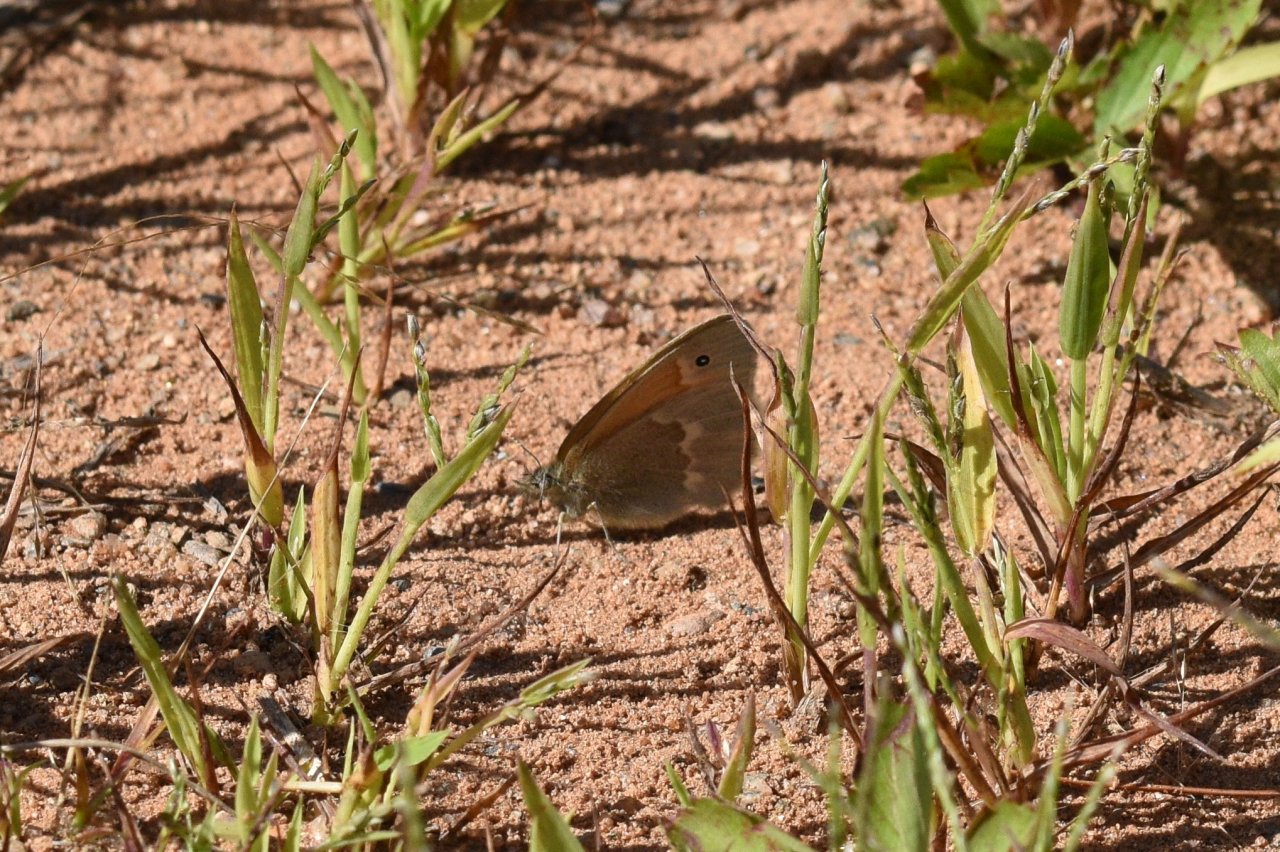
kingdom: Animalia
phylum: Arthropoda
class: Insecta
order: Lepidoptera
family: Nymphalidae
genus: Coenonympha
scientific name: Coenonympha tullia
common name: Large Heath
